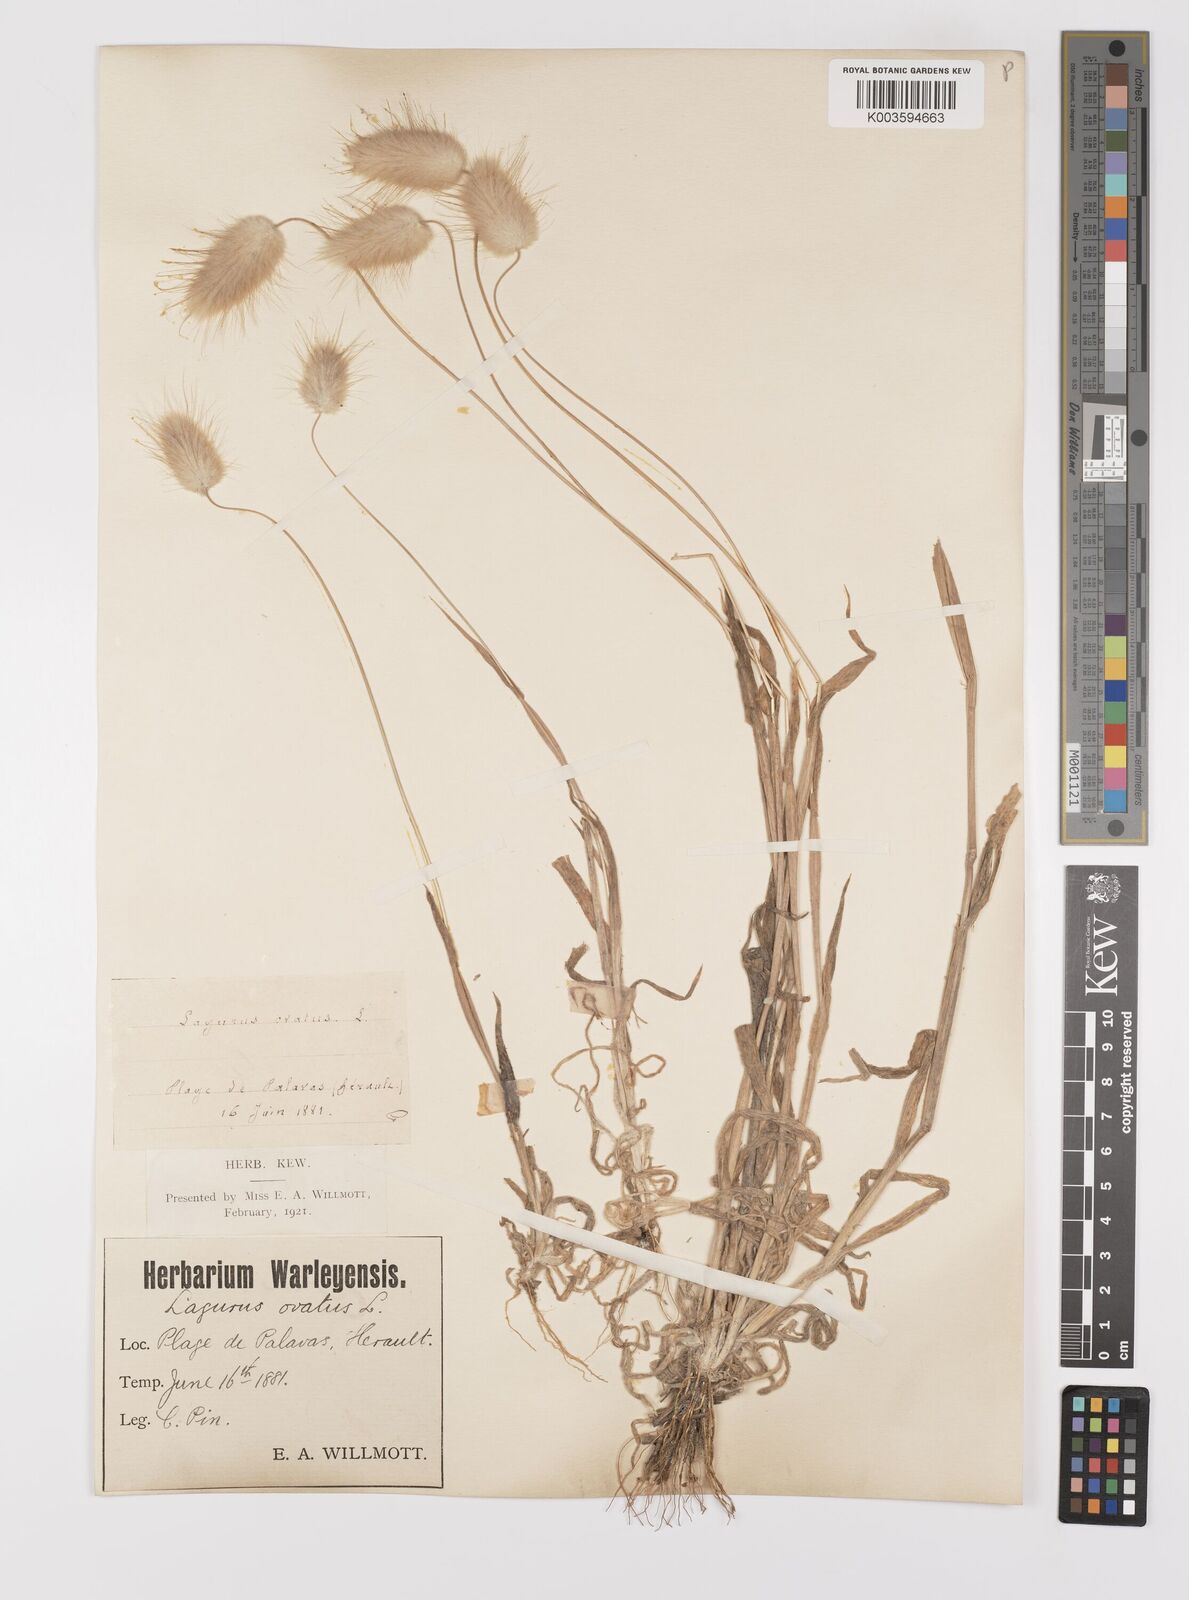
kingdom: Plantae
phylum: Tracheophyta
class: Liliopsida
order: Poales
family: Poaceae
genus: Lagurus
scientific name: Lagurus ovatus
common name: Hare's-tail
